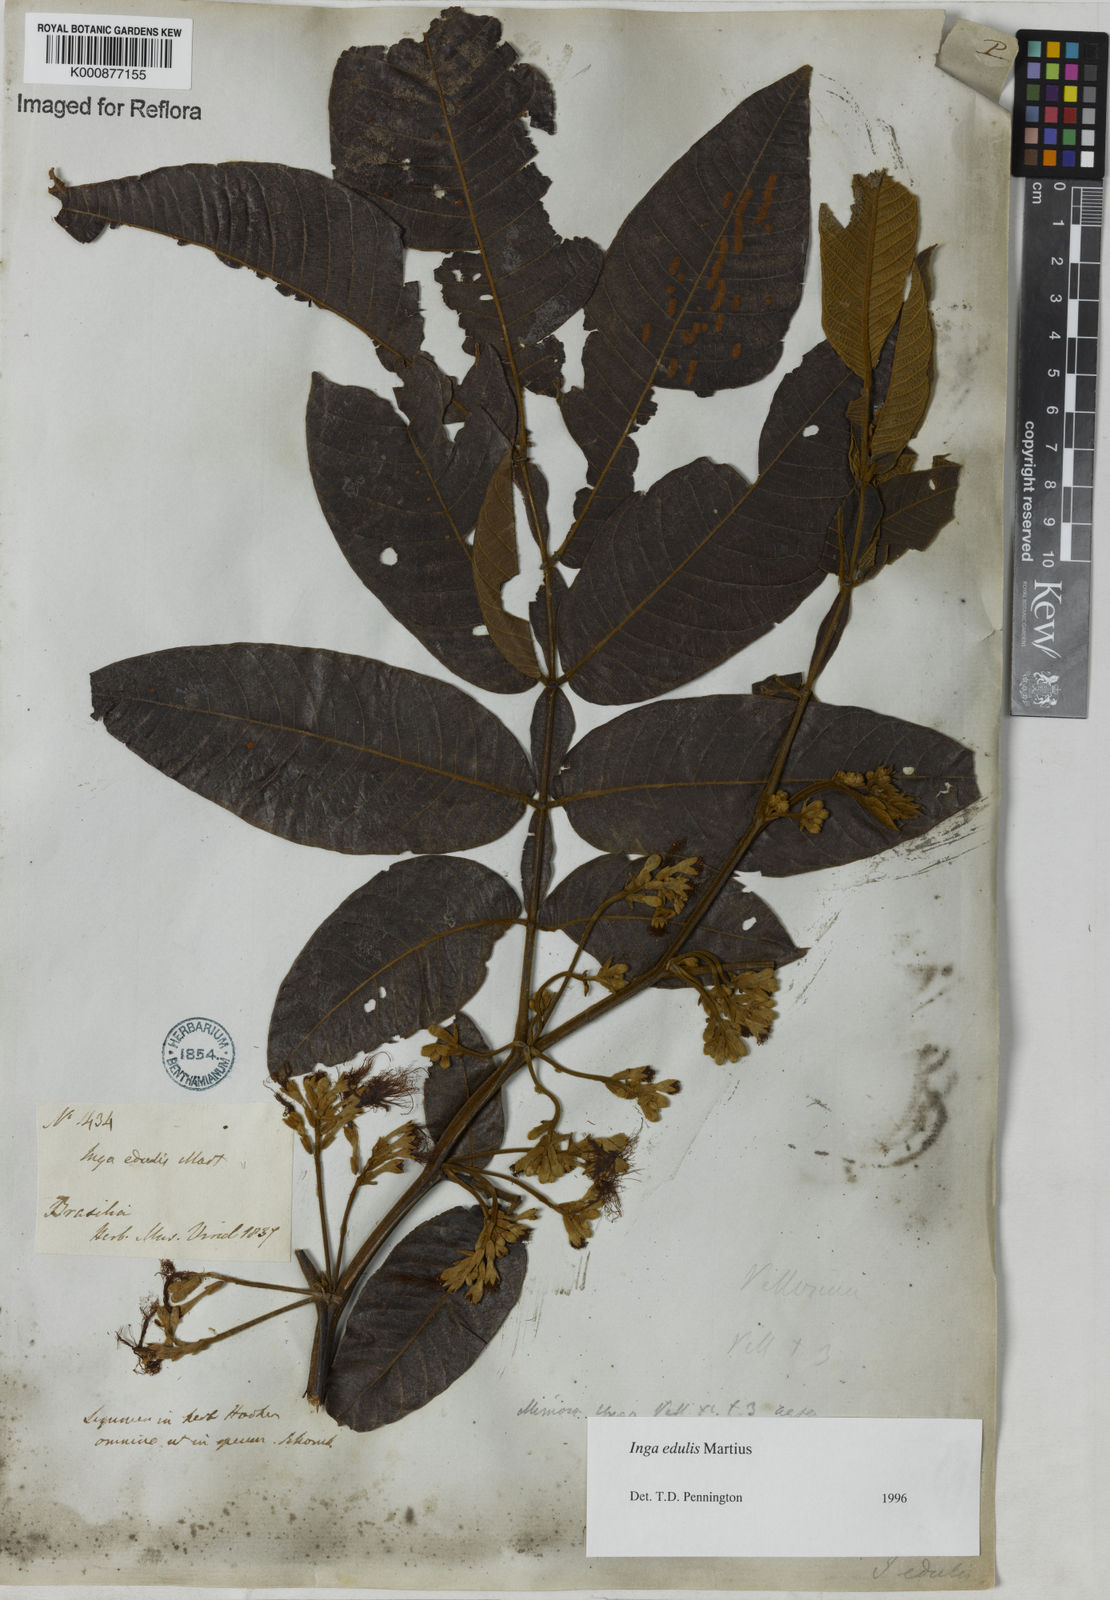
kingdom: Plantae
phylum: Tracheophyta
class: Magnoliopsida
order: Fabales
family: Fabaceae
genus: Inga
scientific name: Inga edulis
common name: Ice cream bean
